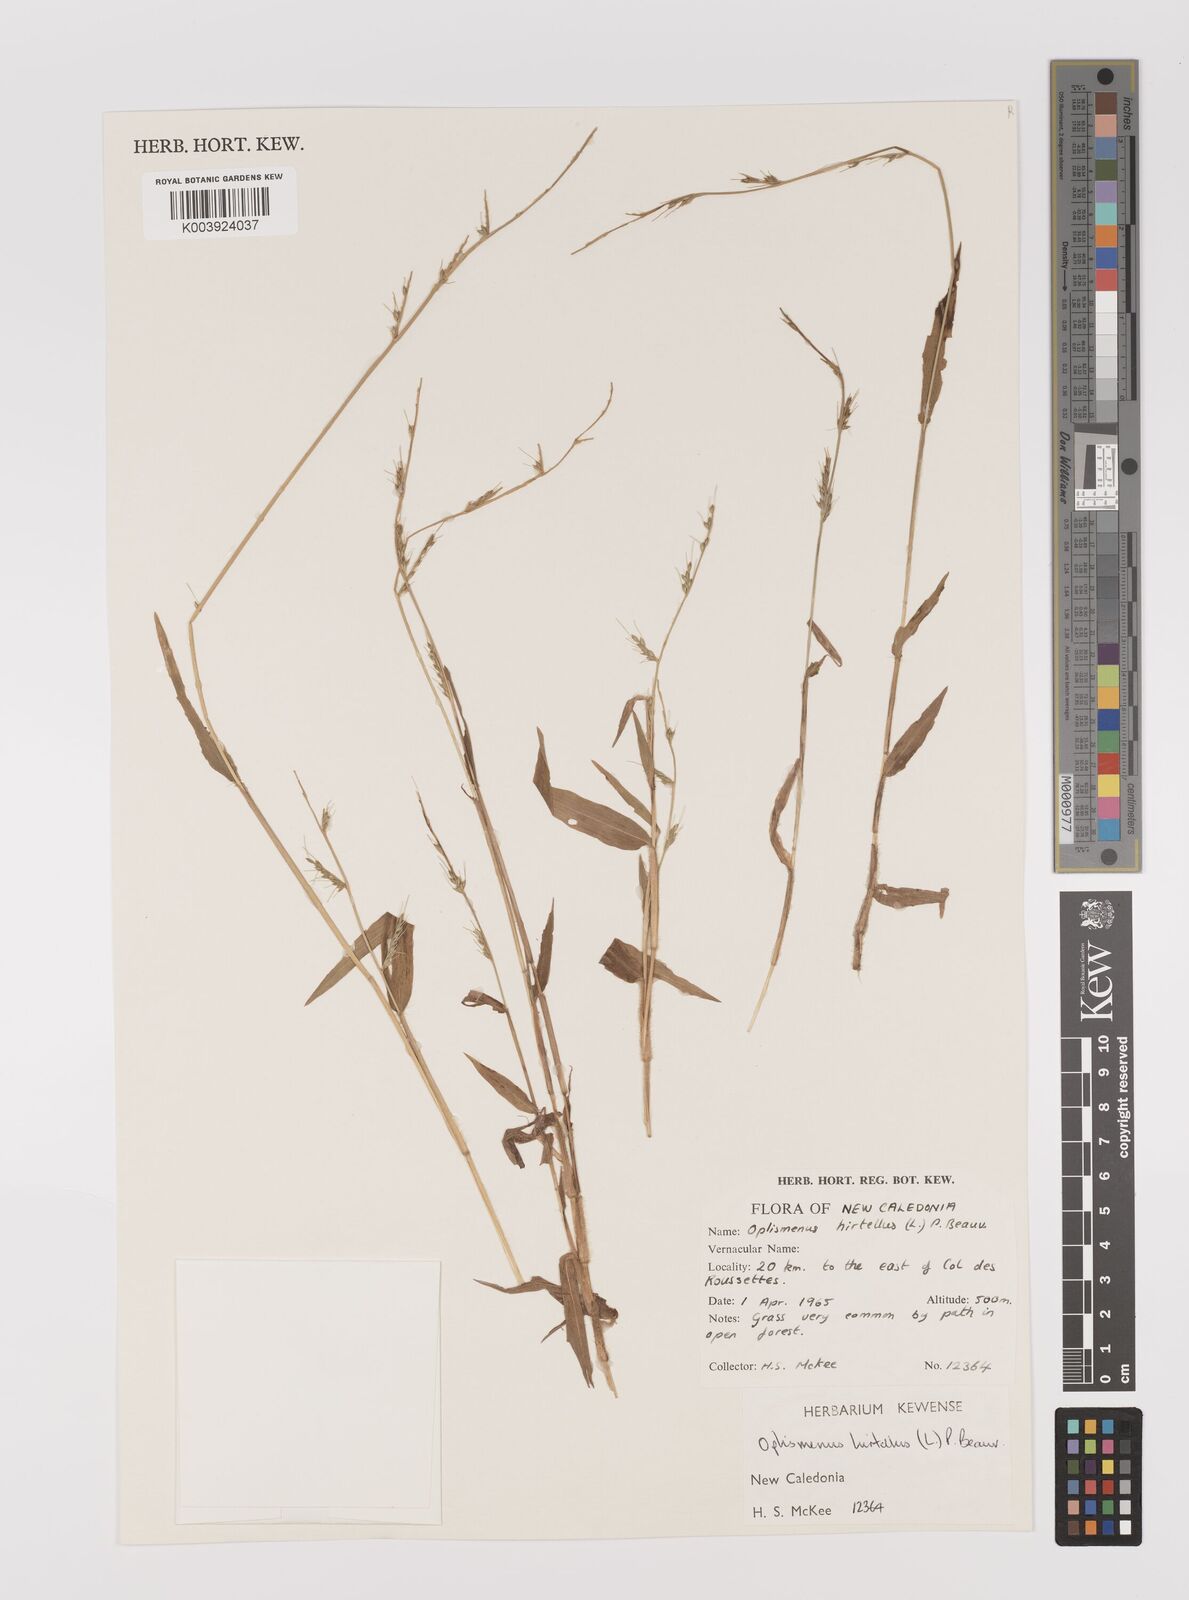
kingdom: Plantae
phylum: Tracheophyta
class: Liliopsida
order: Poales
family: Poaceae
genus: Oplismenus
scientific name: Oplismenus hirtellus
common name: Basketgrass
